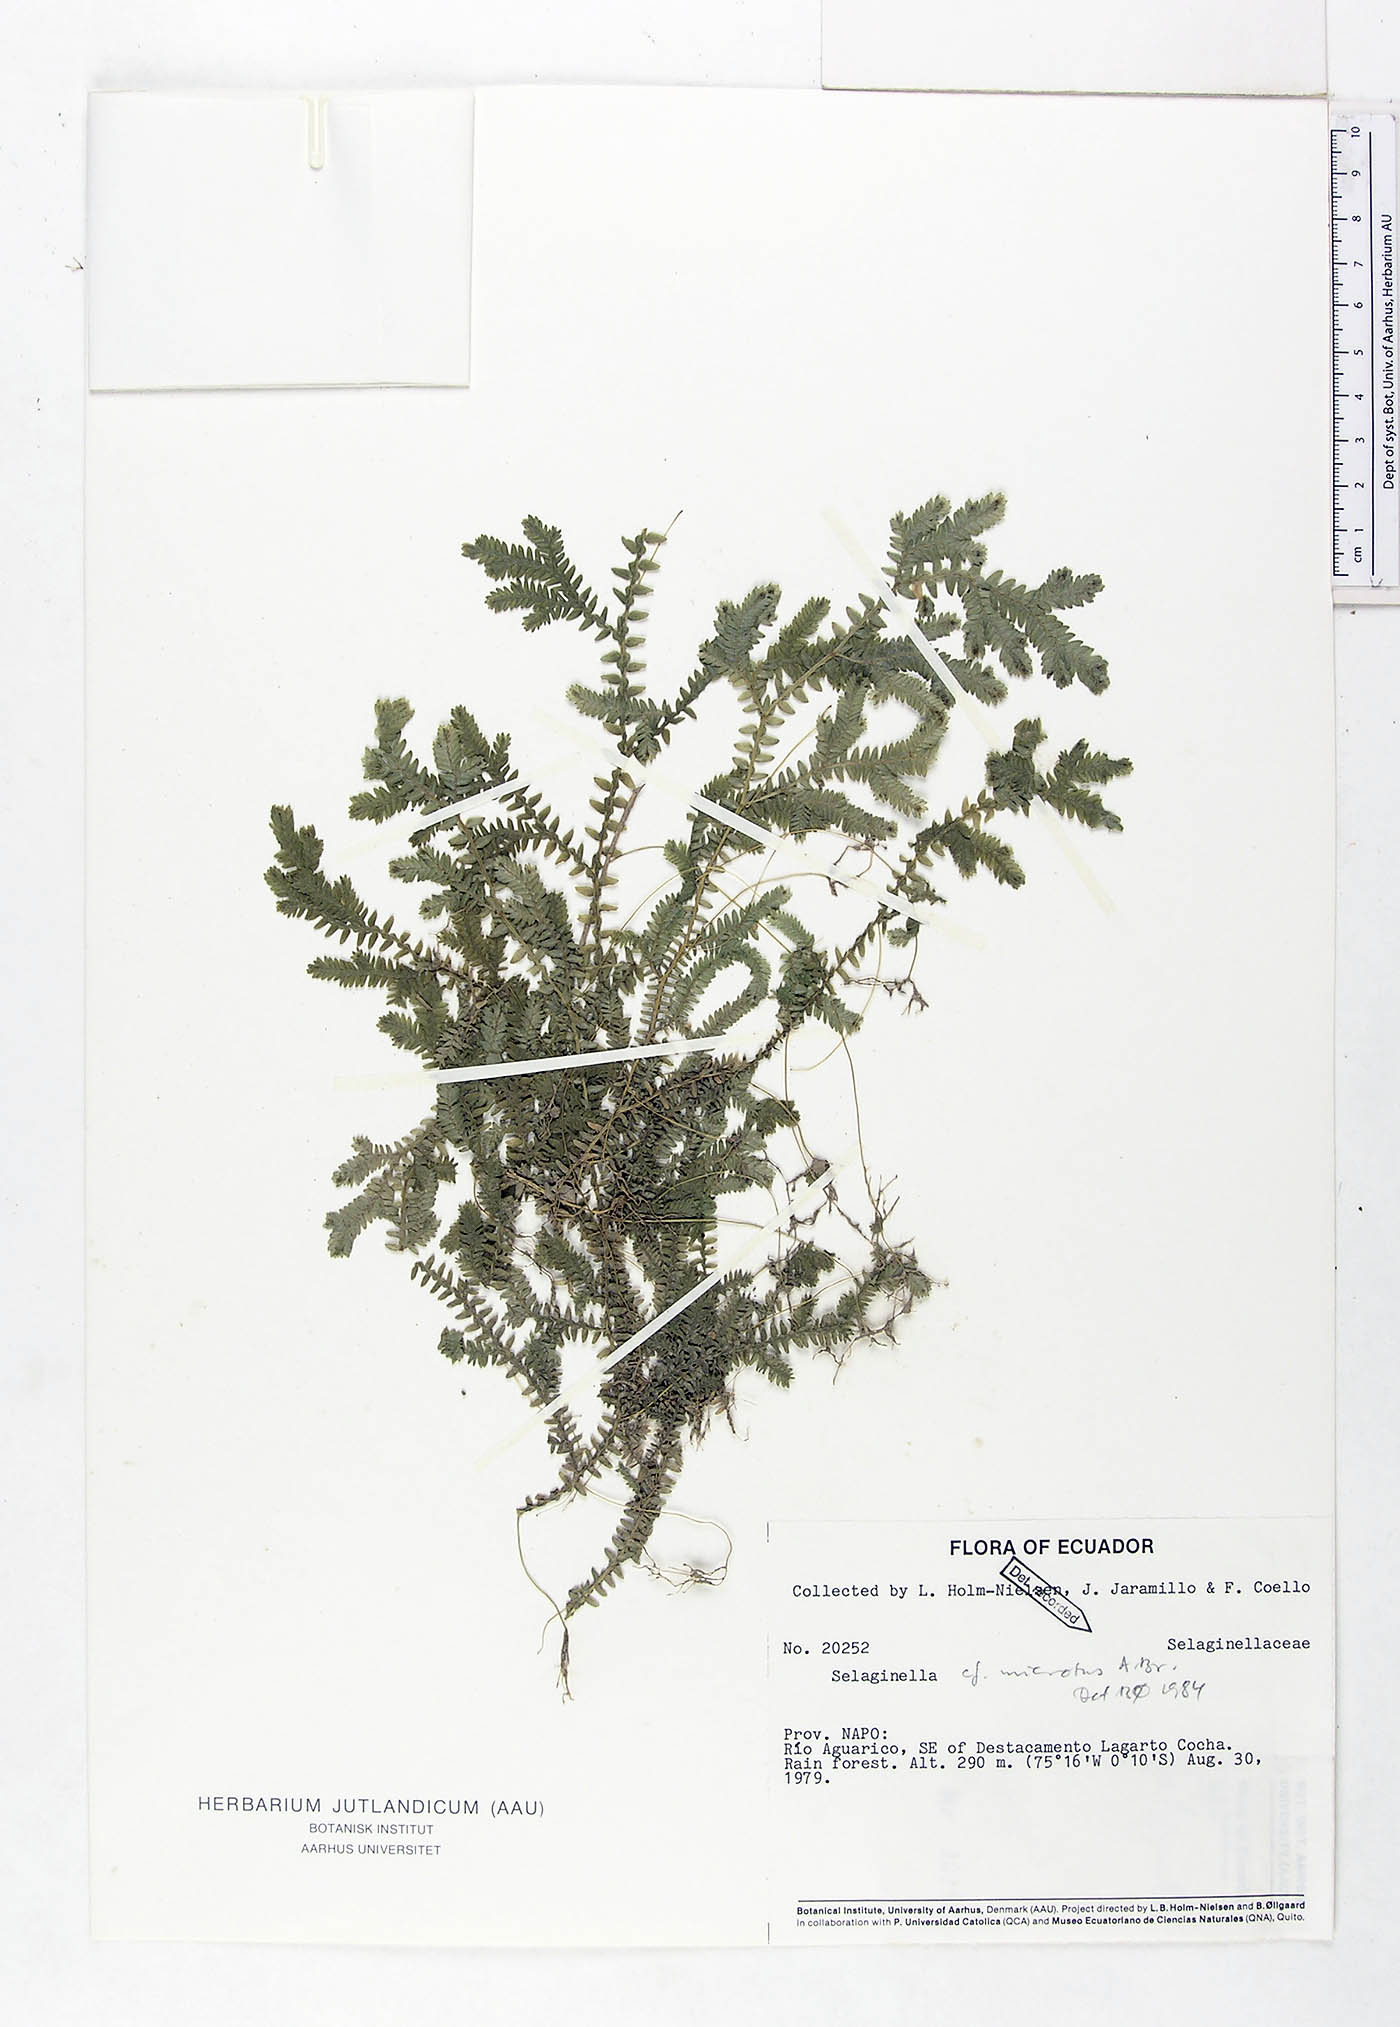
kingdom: Plantae
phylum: Tracheophyta
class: Lycopodiopsida
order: Selaginellales
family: Selaginellaceae
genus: Selaginella
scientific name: Selaginella microtus
